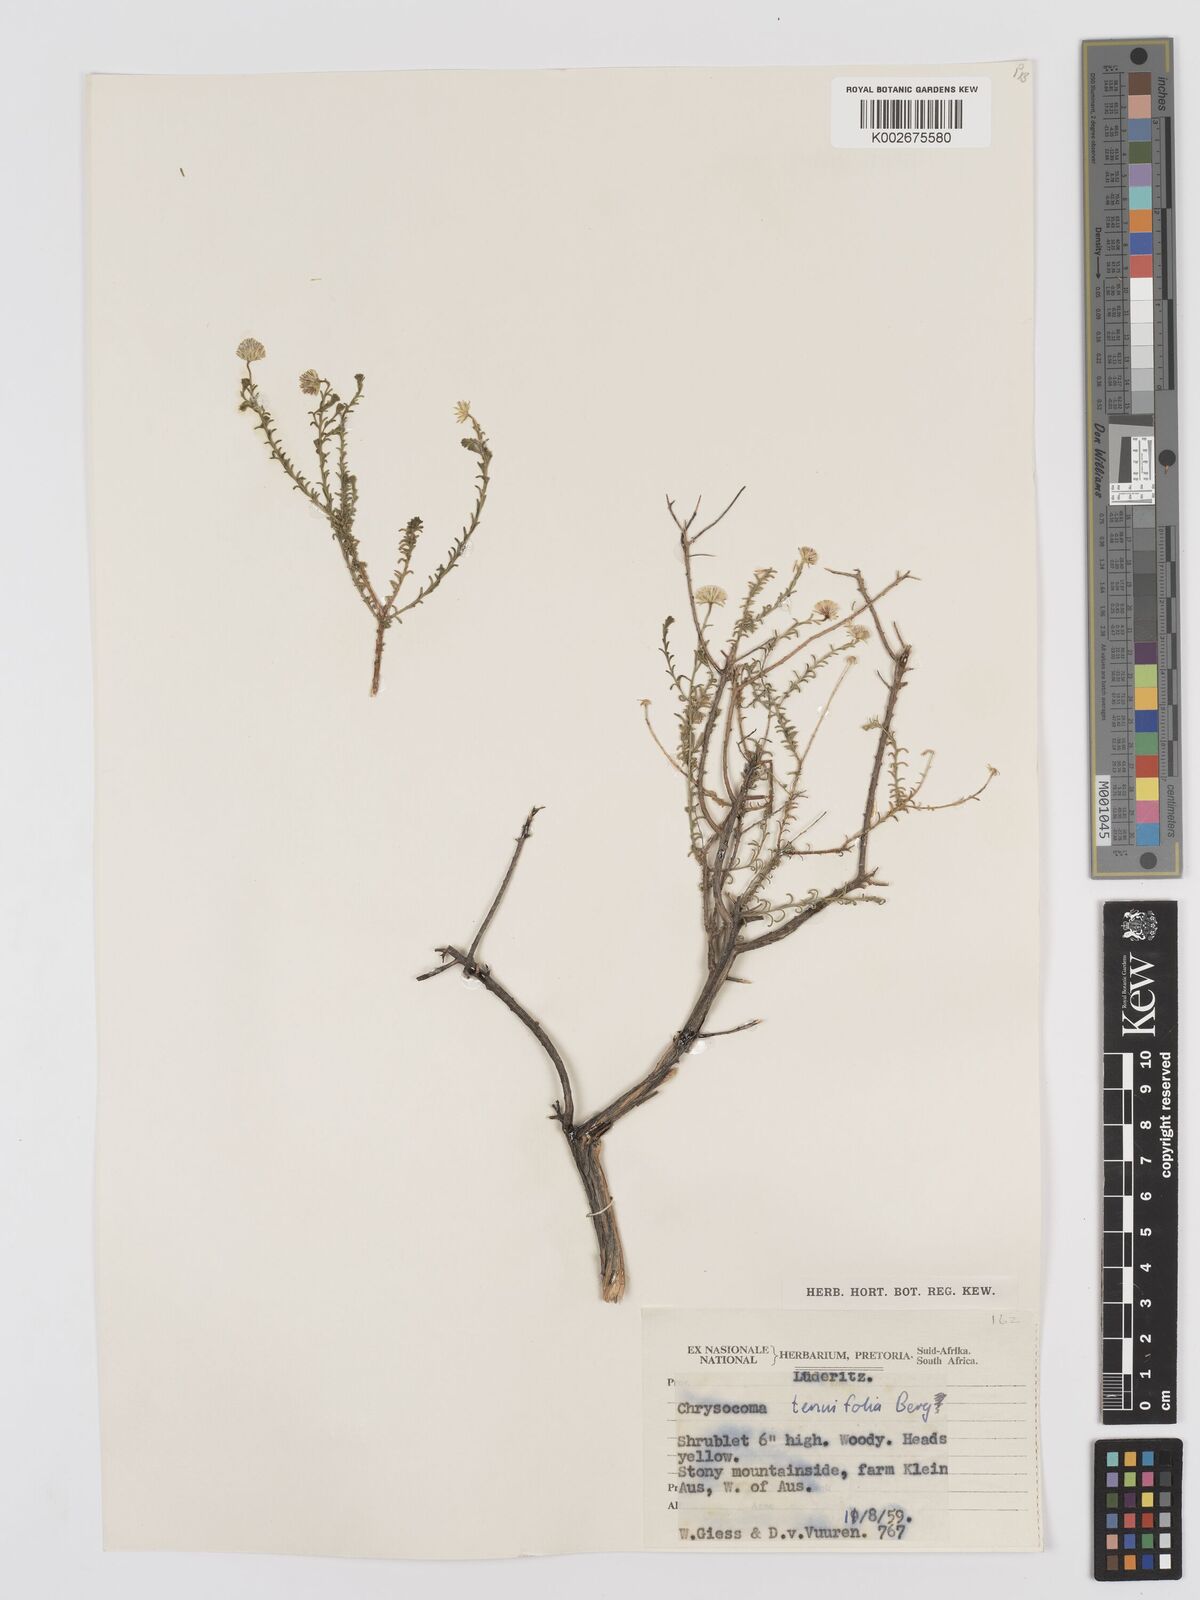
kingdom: Plantae
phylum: Tracheophyta
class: Magnoliopsida
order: Asterales
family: Asteraceae
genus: Chrysocoma
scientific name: Chrysocoma ciliata
